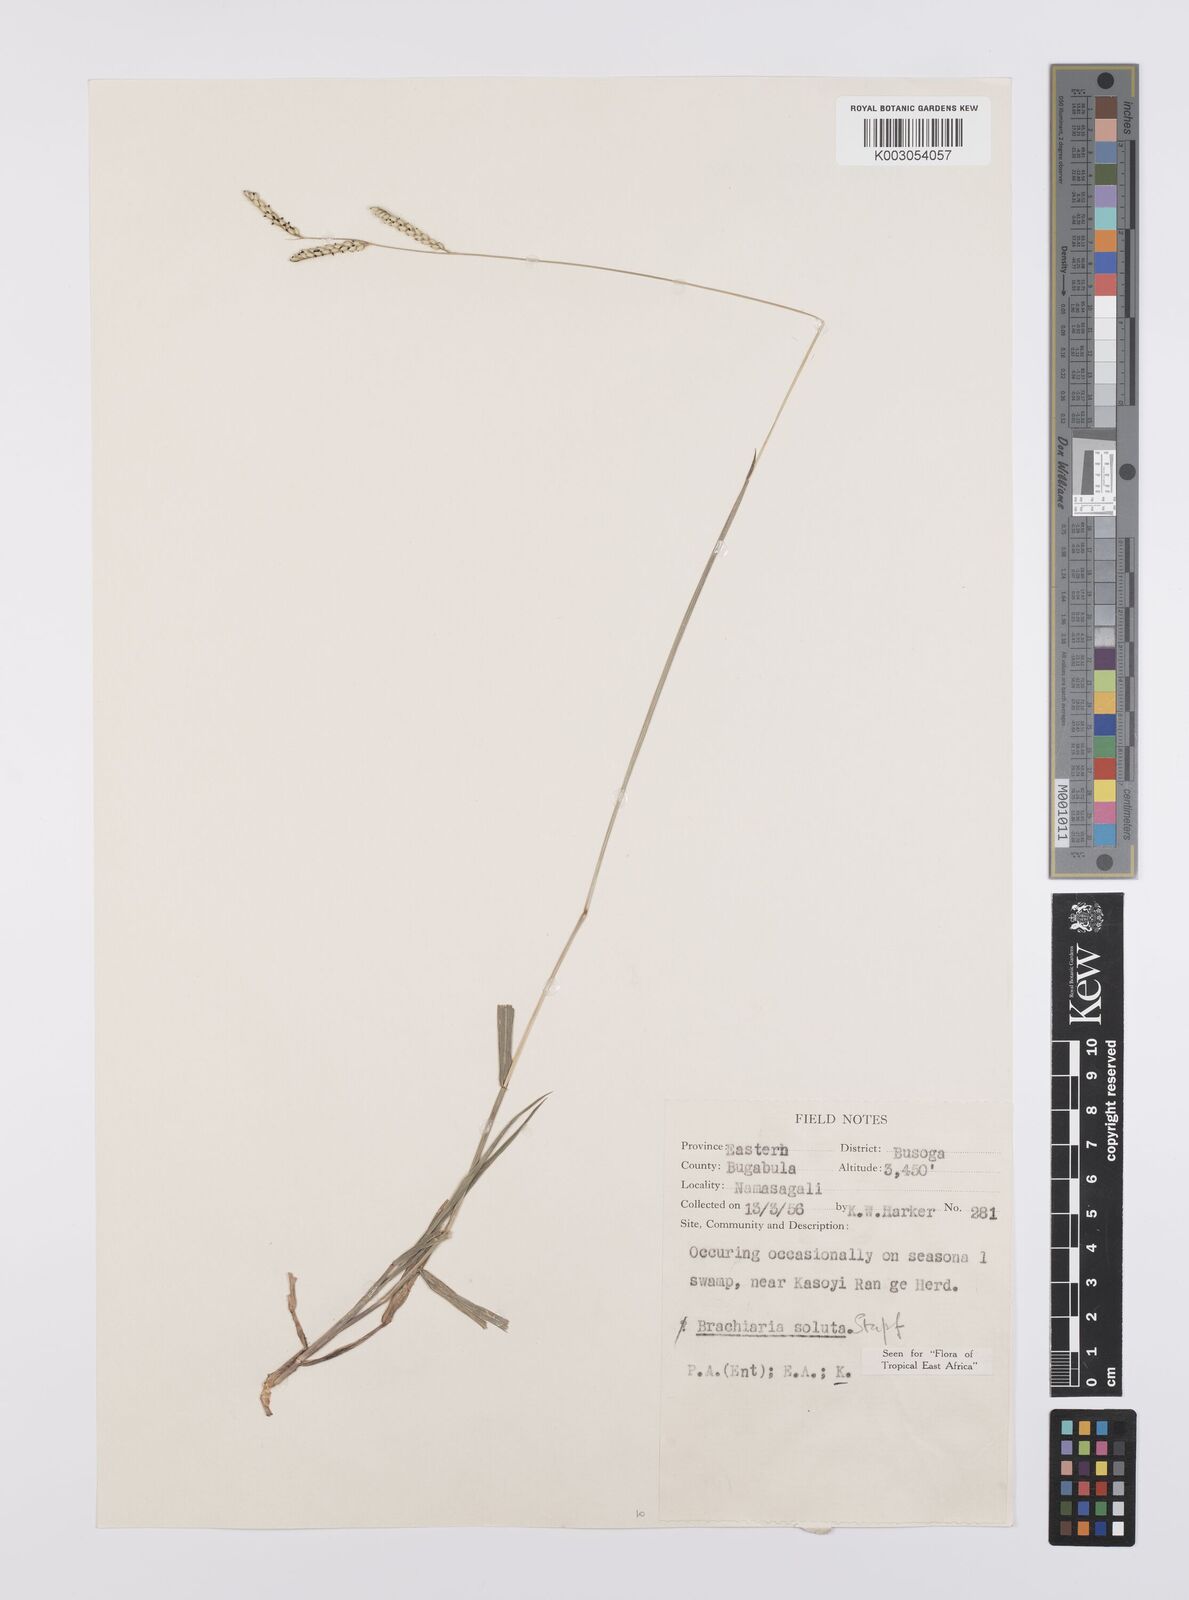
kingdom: Plantae
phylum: Tracheophyta
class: Liliopsida
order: Poales
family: Poaceae
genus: Urochloa
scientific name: Urochloa jubata
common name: Buffalograss
